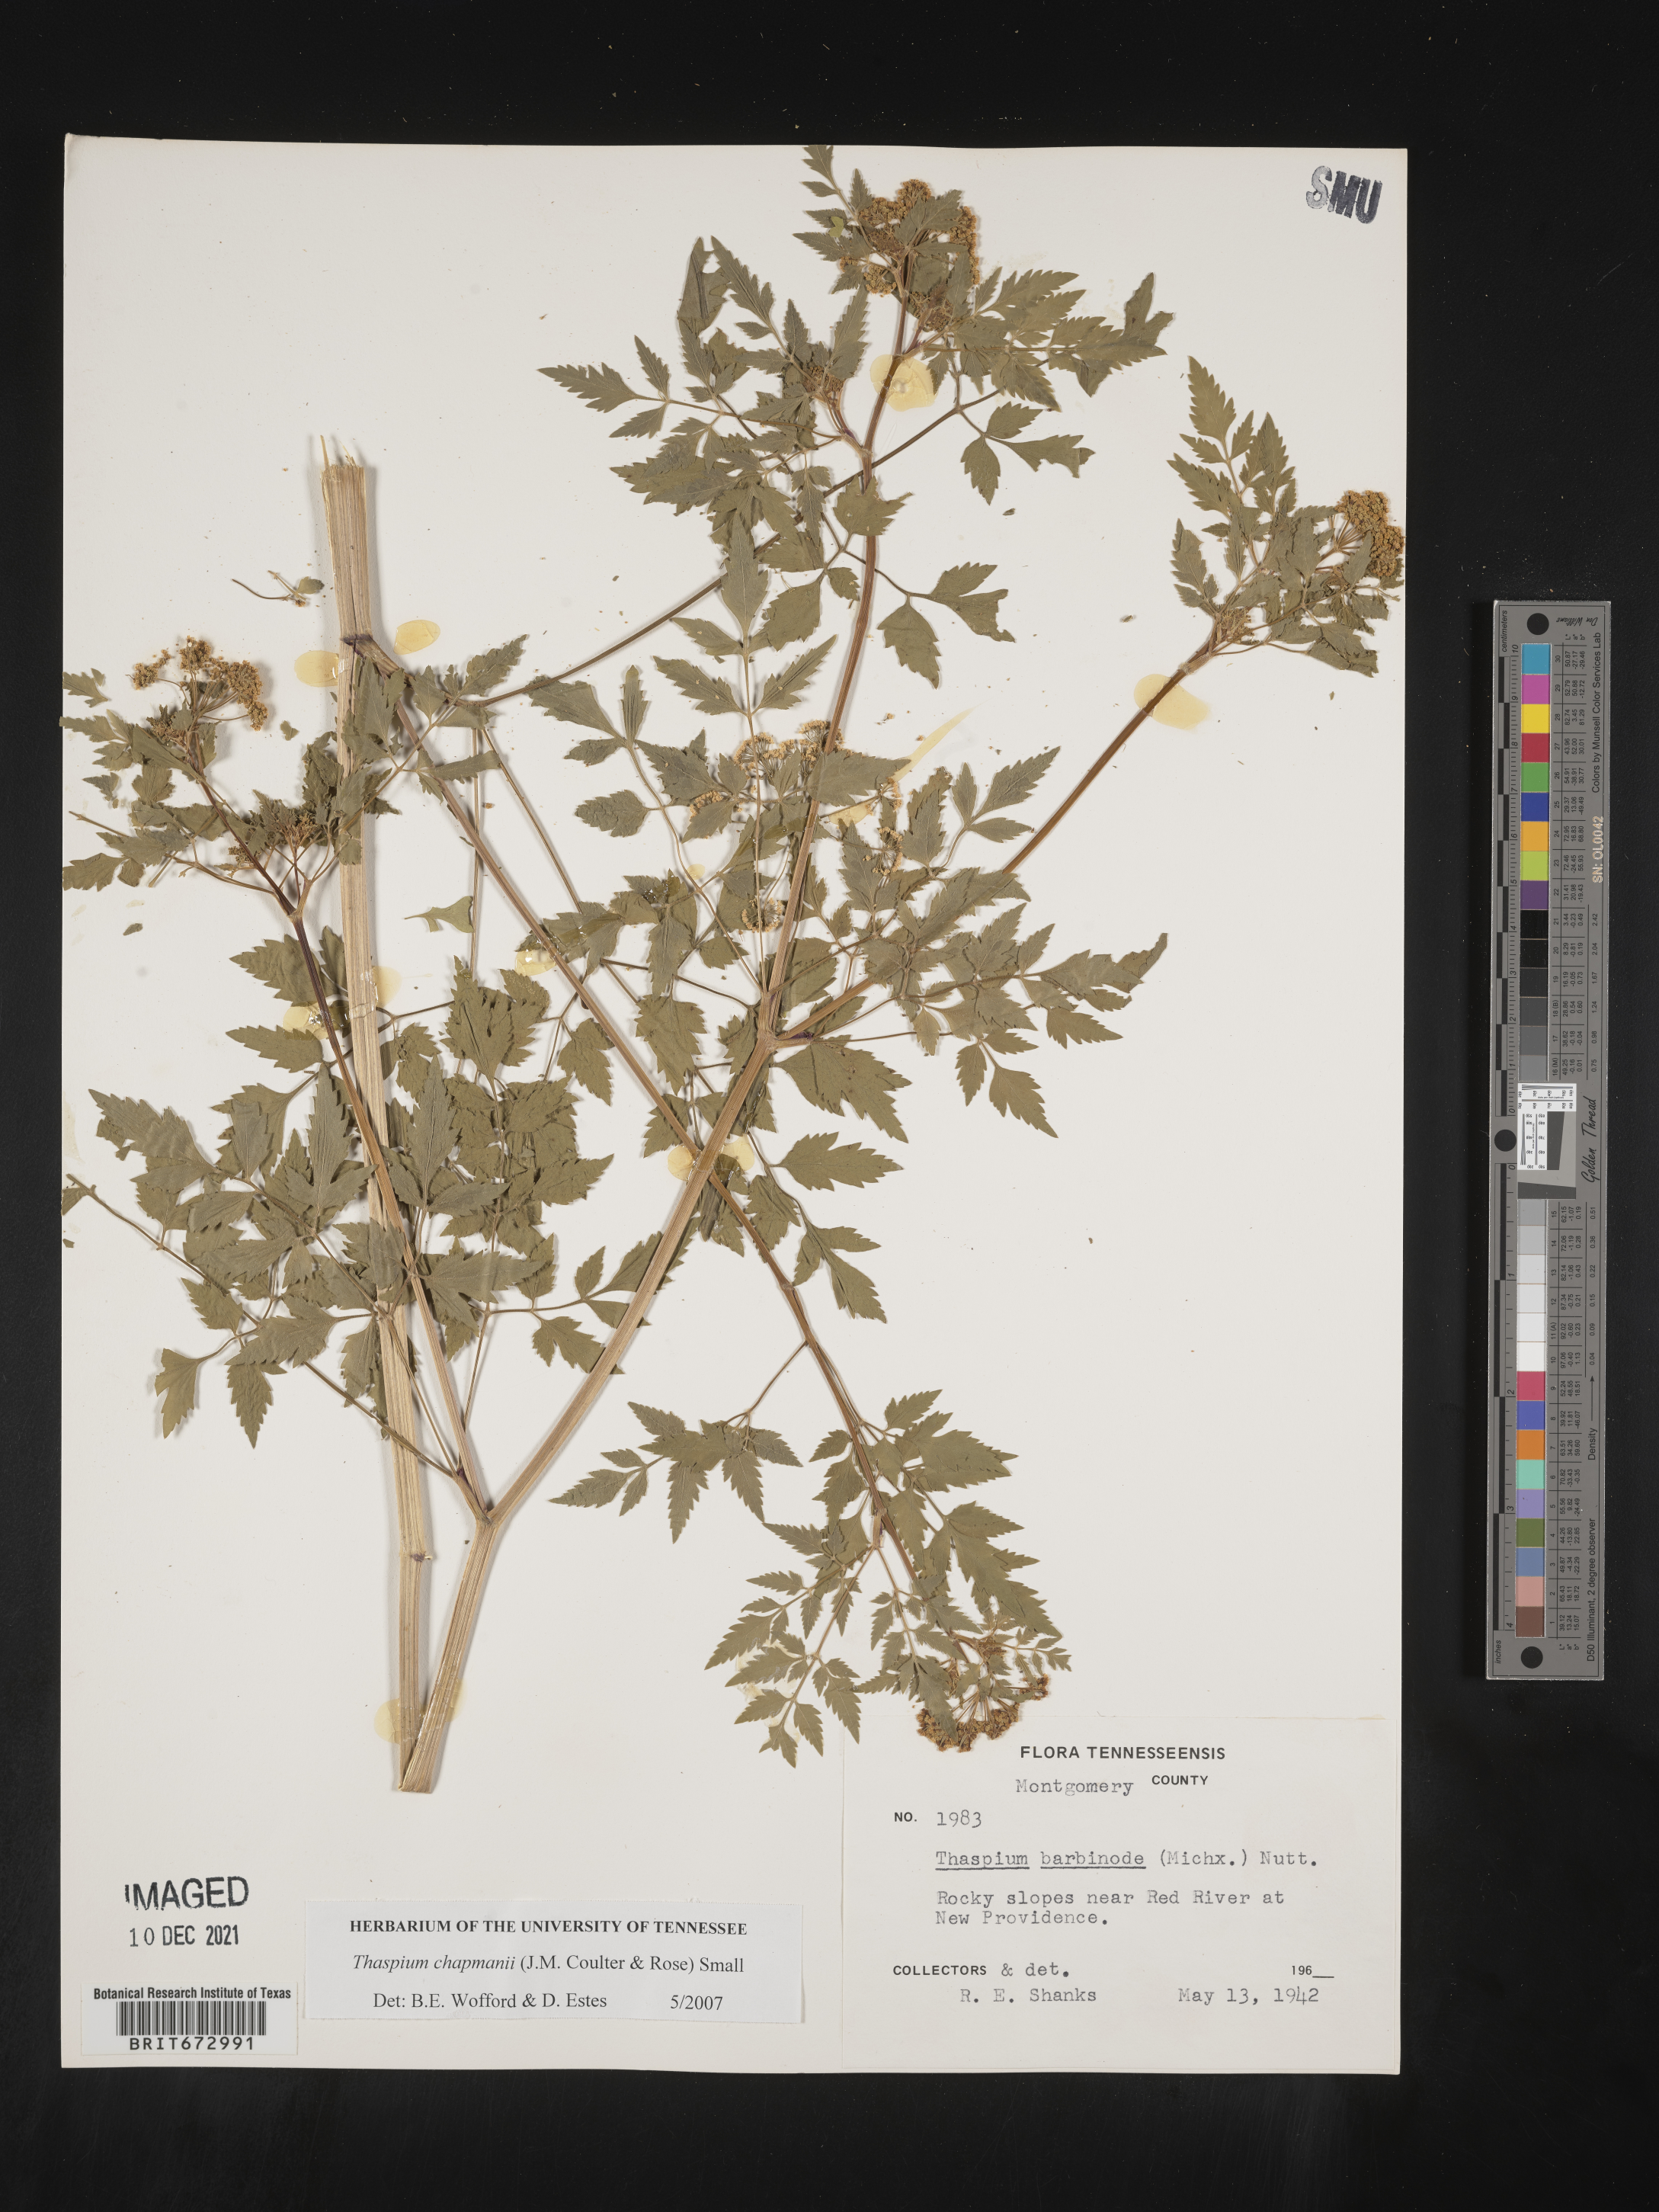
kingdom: Plantae
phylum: Tracheophyta
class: Magnoliopsida
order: Apiales
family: Apiaceae
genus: Thaspium
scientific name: Thaspium barbinode
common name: Bearded meadow-parsnip
